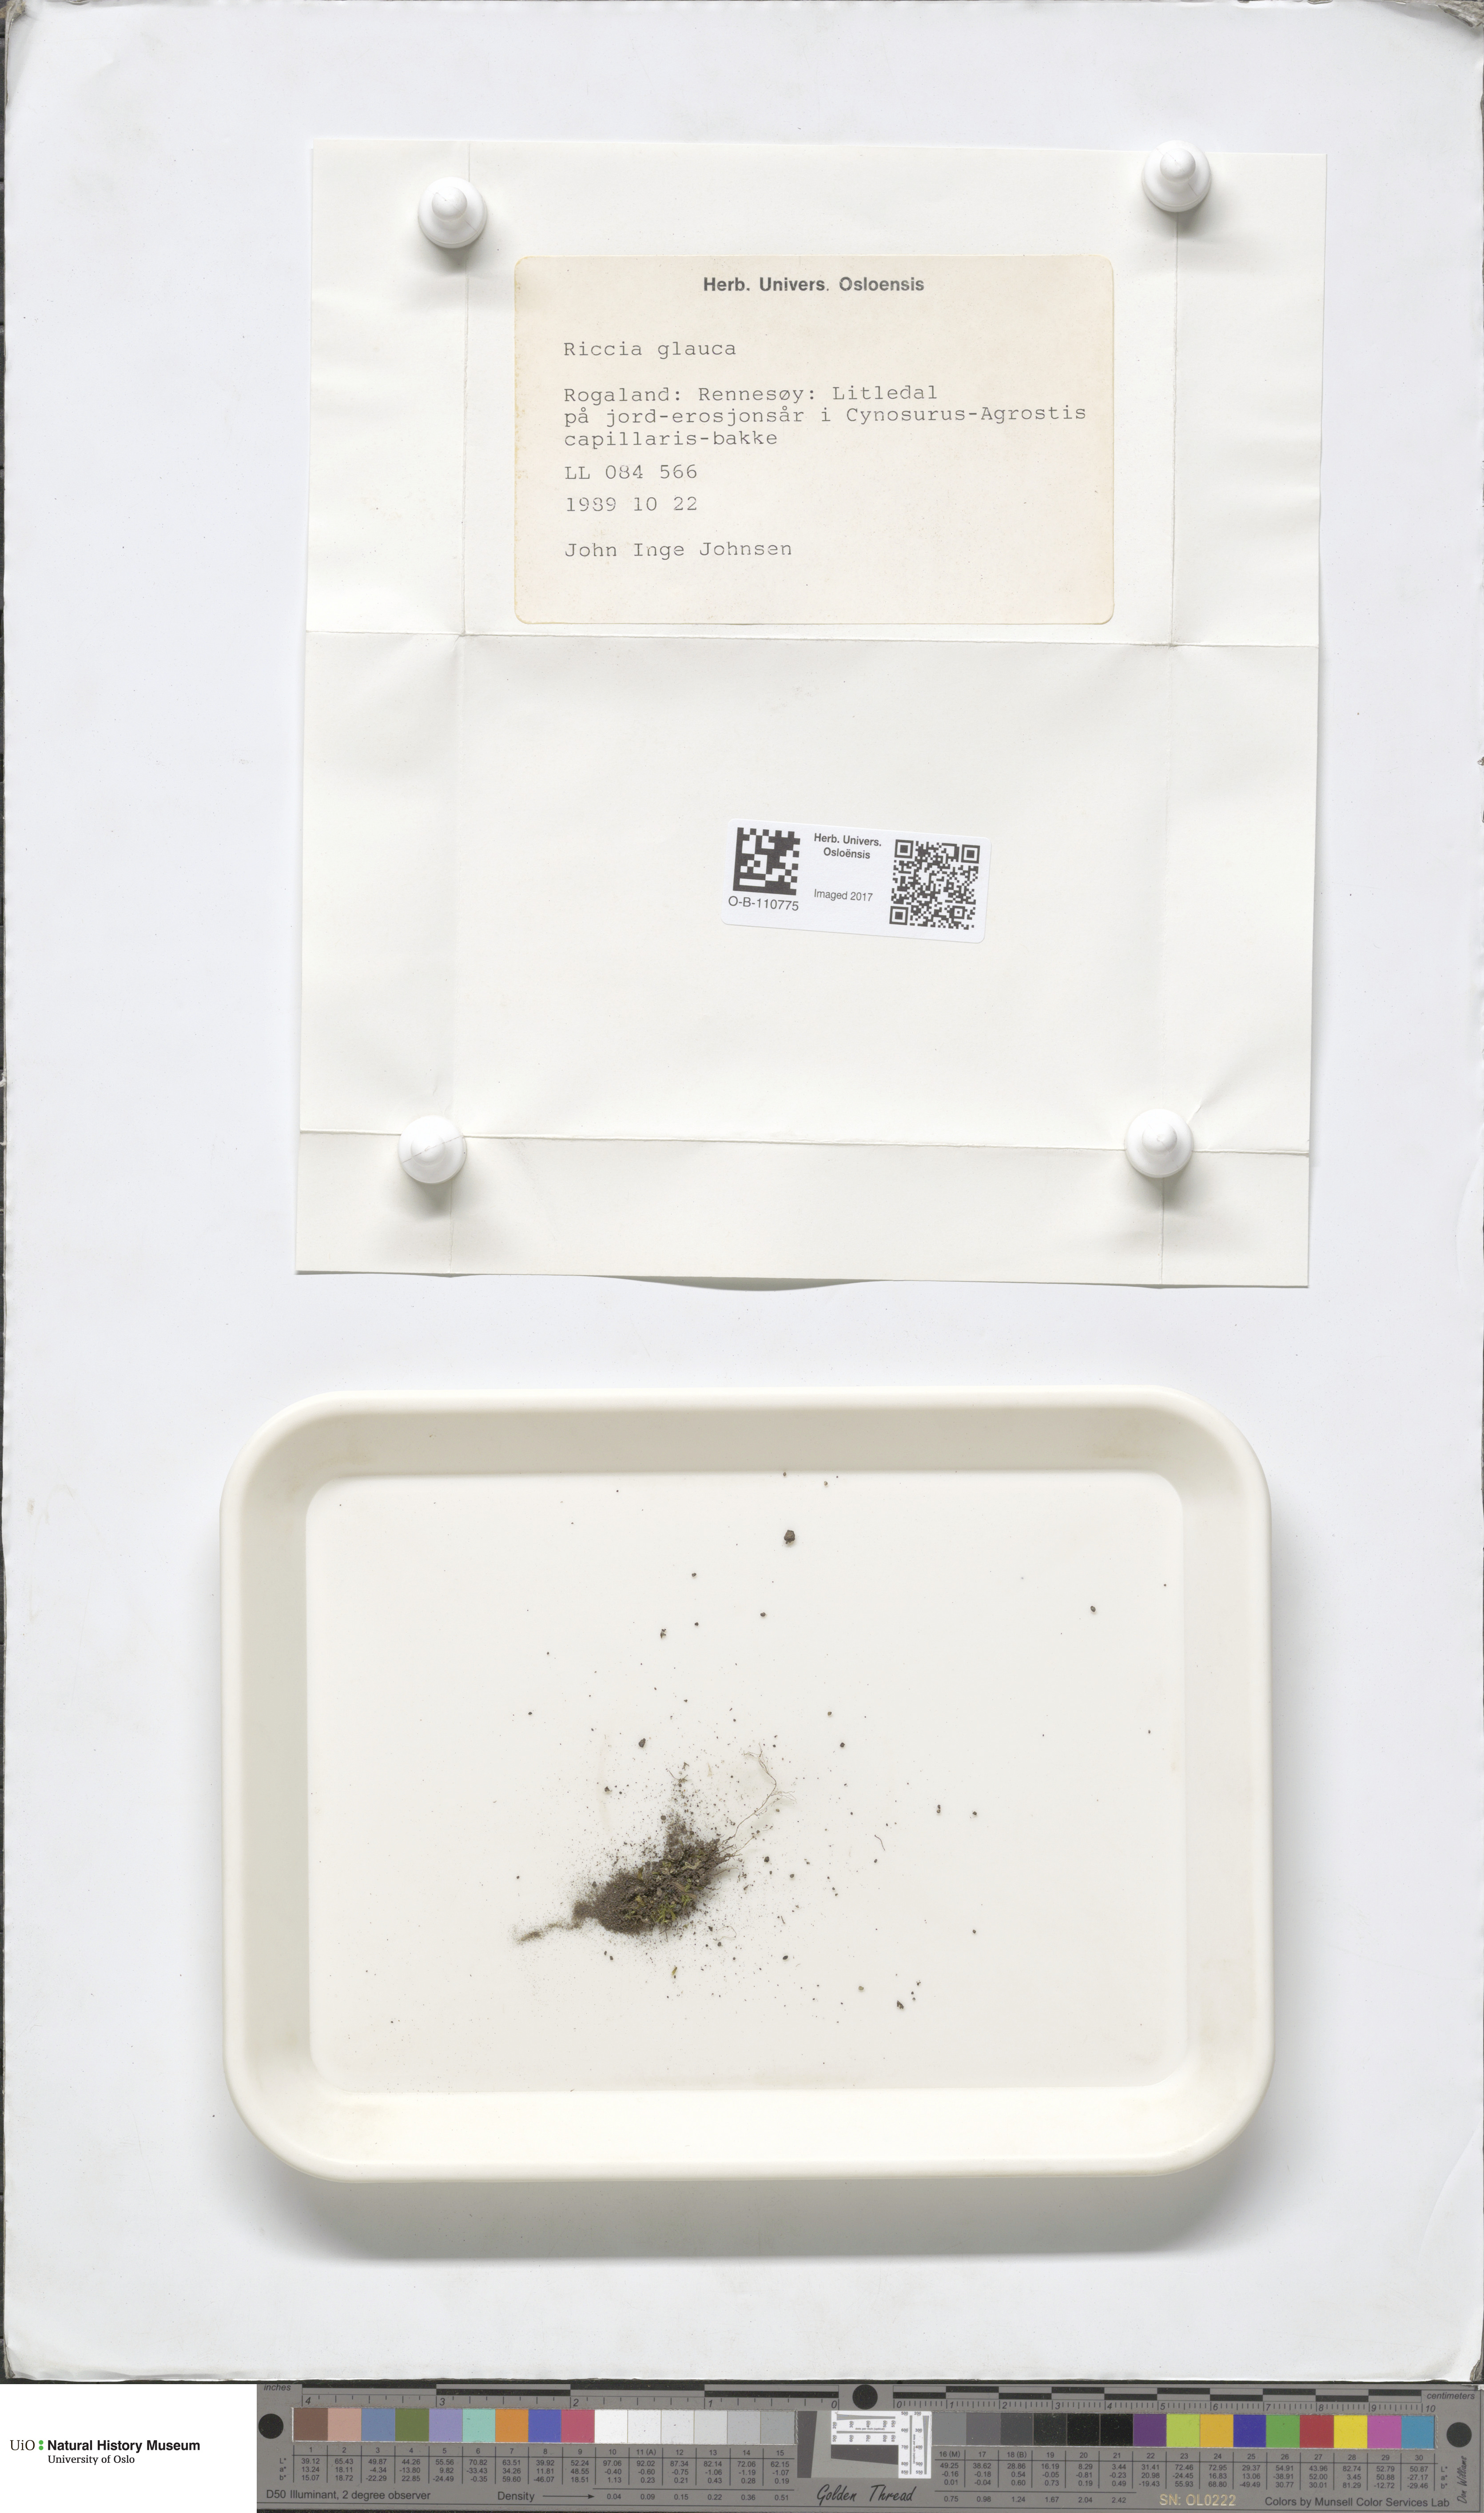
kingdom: Plantae
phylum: Marchantiophyta
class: Marchantiopsida
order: Marchantiales
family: Ricciaceae
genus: Riccia
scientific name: Riccia glauca
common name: Glaucous crystalwort
